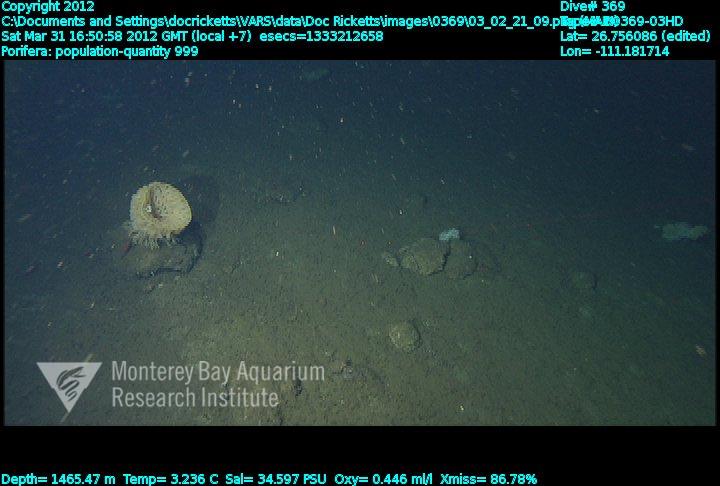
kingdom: Animalia
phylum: Porifera
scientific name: Porifera
